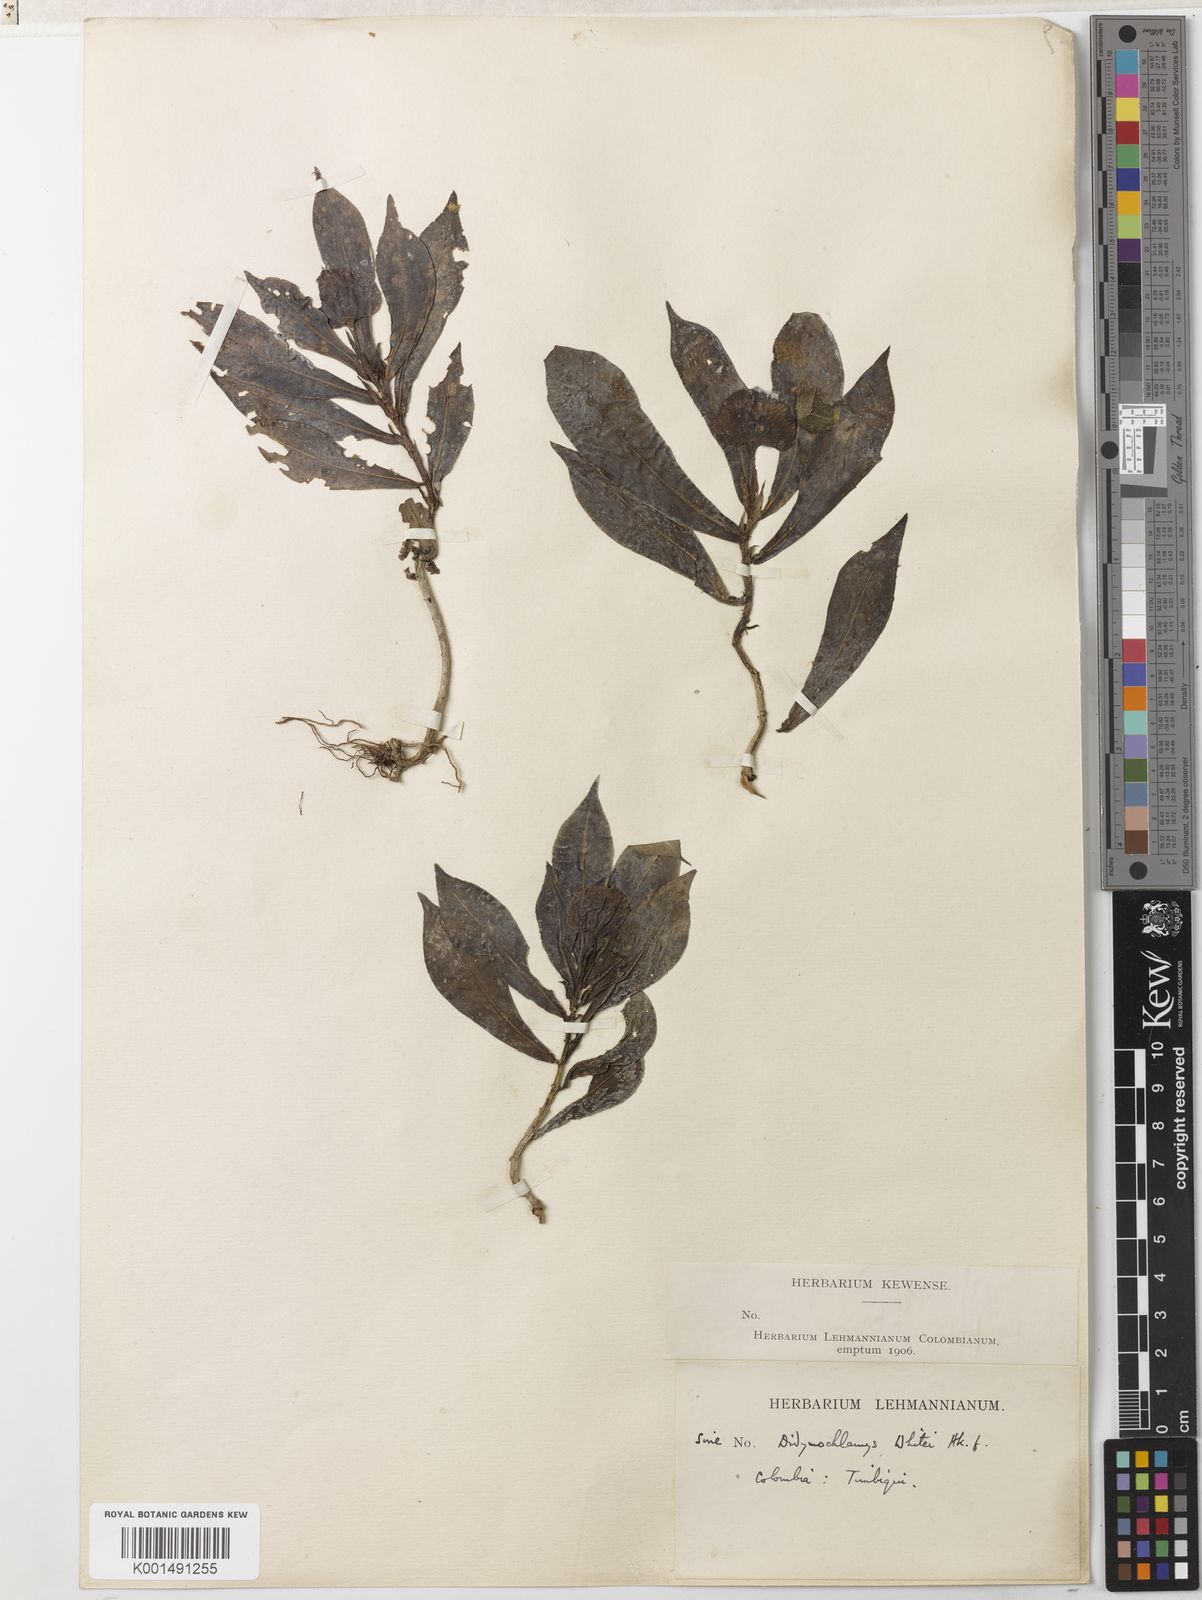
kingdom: Plantae
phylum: Tracheophyta
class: Magnoliopsida
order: Gentianales
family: Rubiaceae
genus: Didymochlamys
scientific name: Didymochlamys whitei
